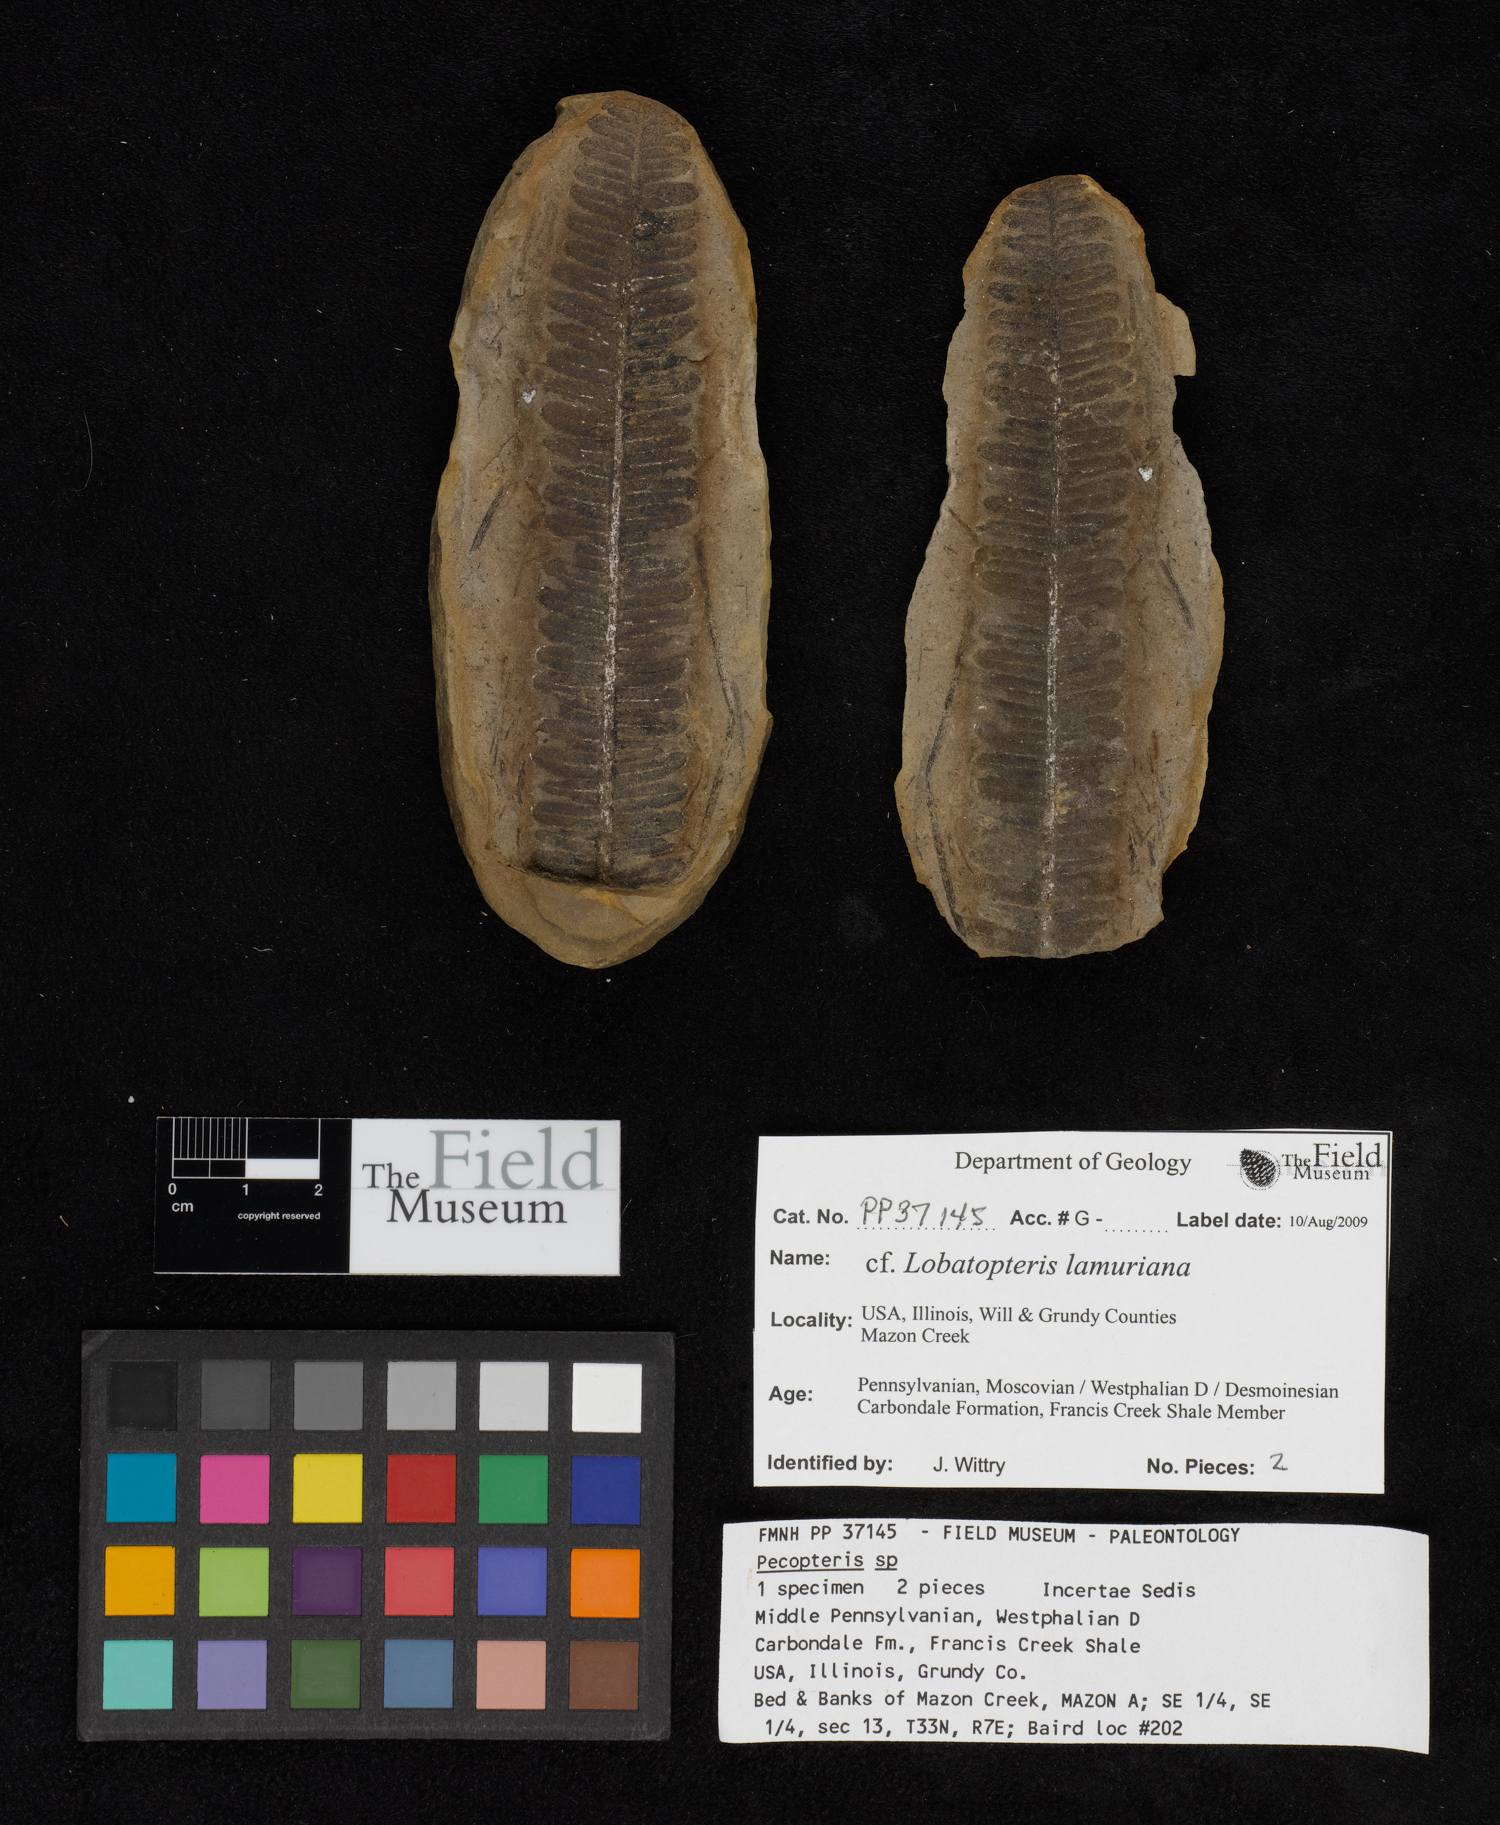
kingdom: Plantae
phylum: Tracheophyta
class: Polypodiopsida
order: Marattiales
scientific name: Marattiales
